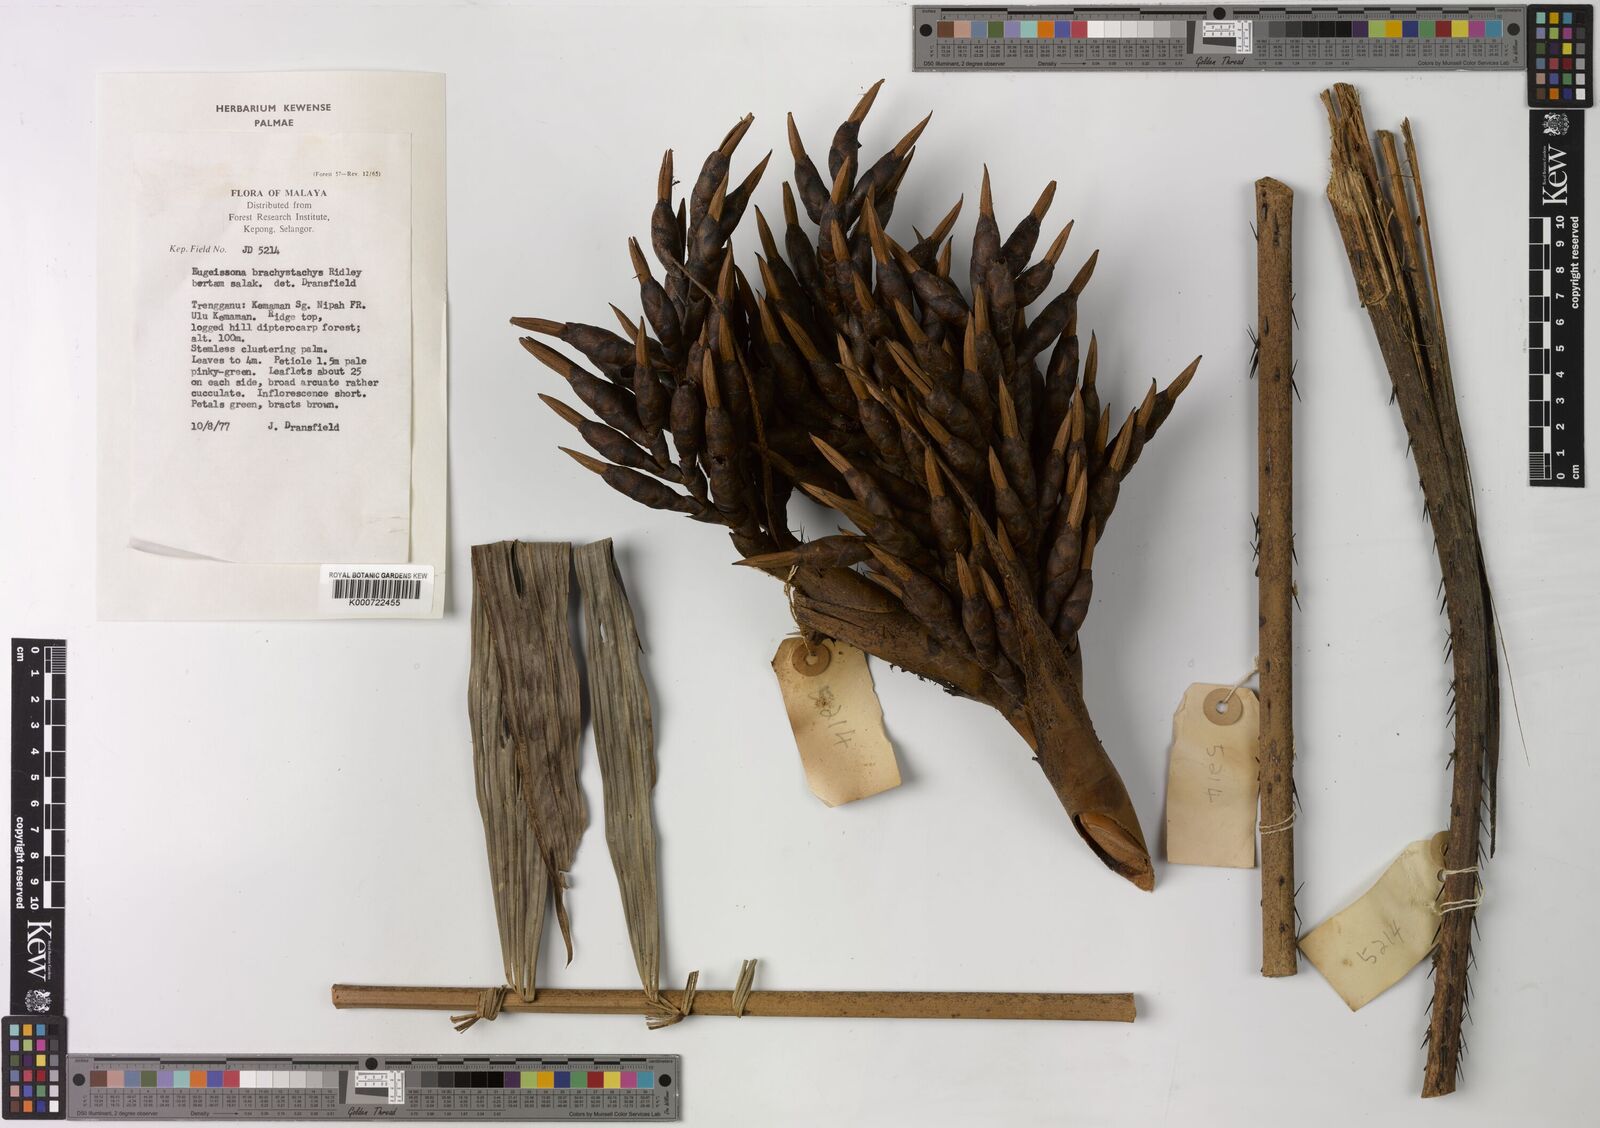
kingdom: Plantae
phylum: Tracheophyta
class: Liliopsida
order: Arecales
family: Arecaceae
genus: Eugeissona
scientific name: Eugeissona brachystachys
